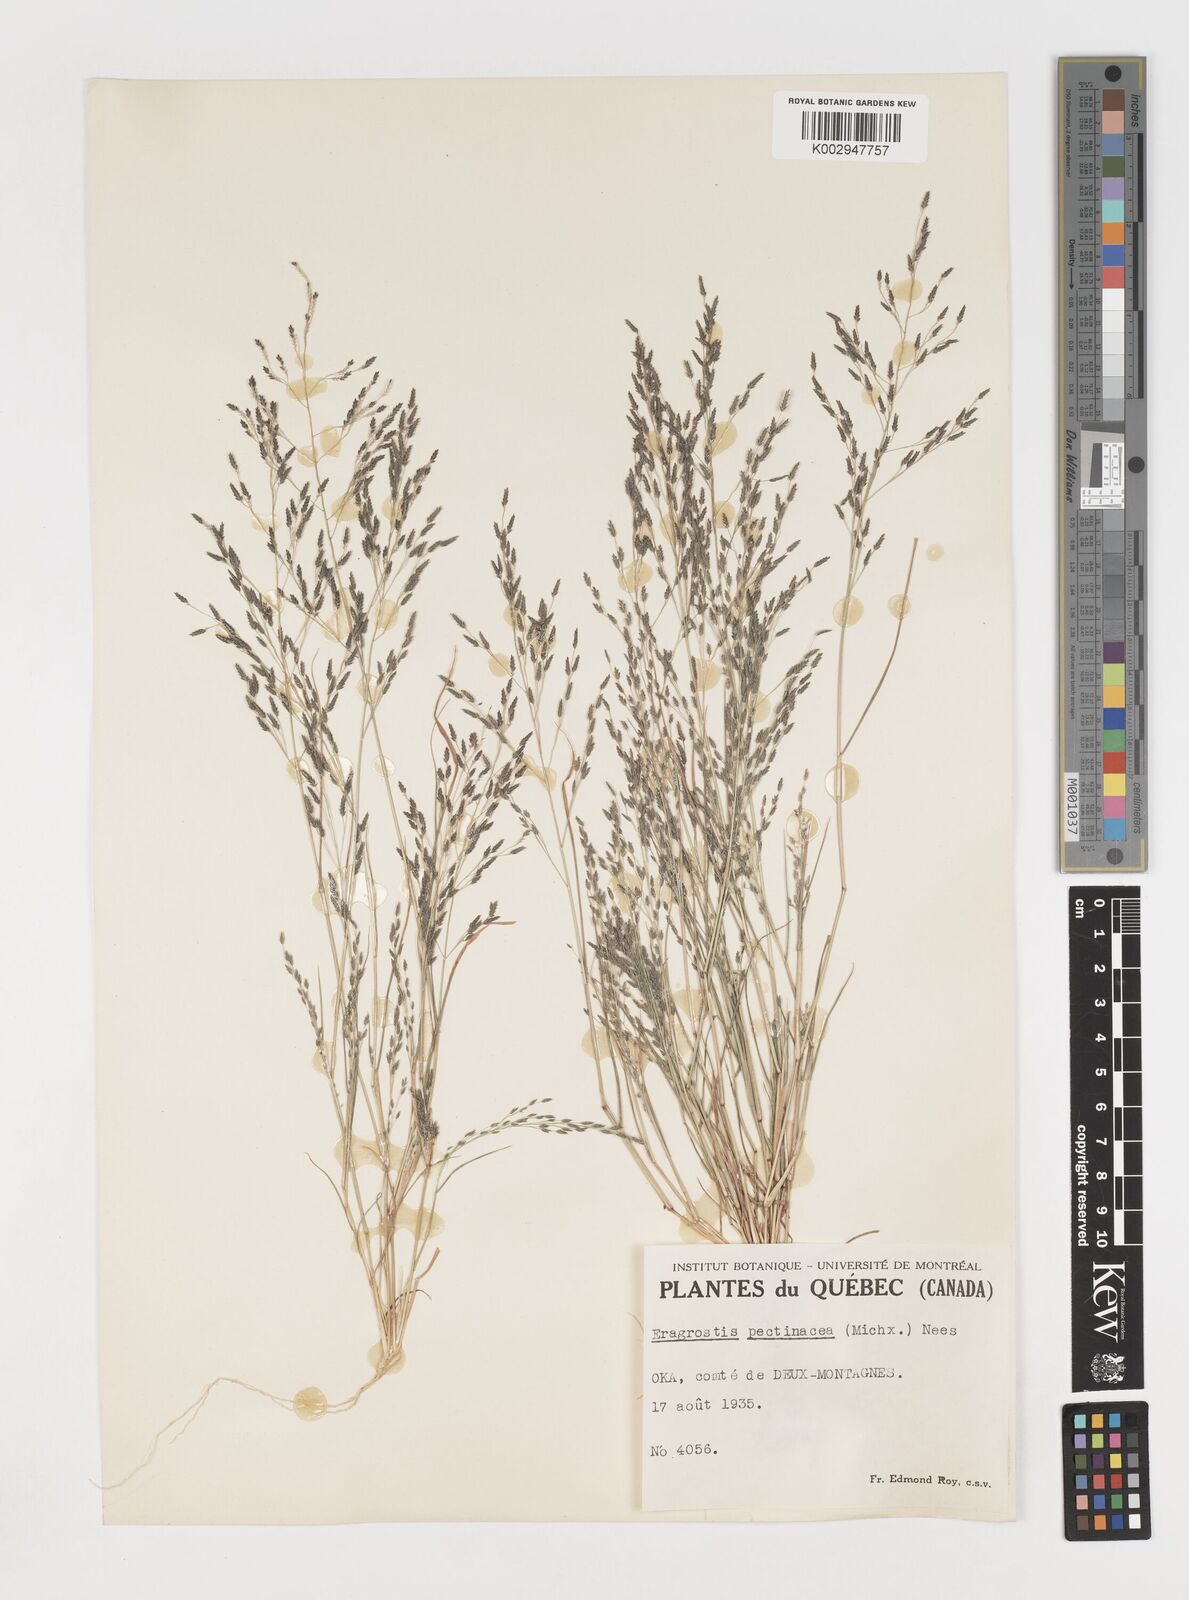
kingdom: Plantae
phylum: Tracheophyta
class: Liliopsida
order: Poales
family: Poaceae
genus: Eragrostis
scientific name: Eragrostis pectinacea
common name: Tufted lovegrass
